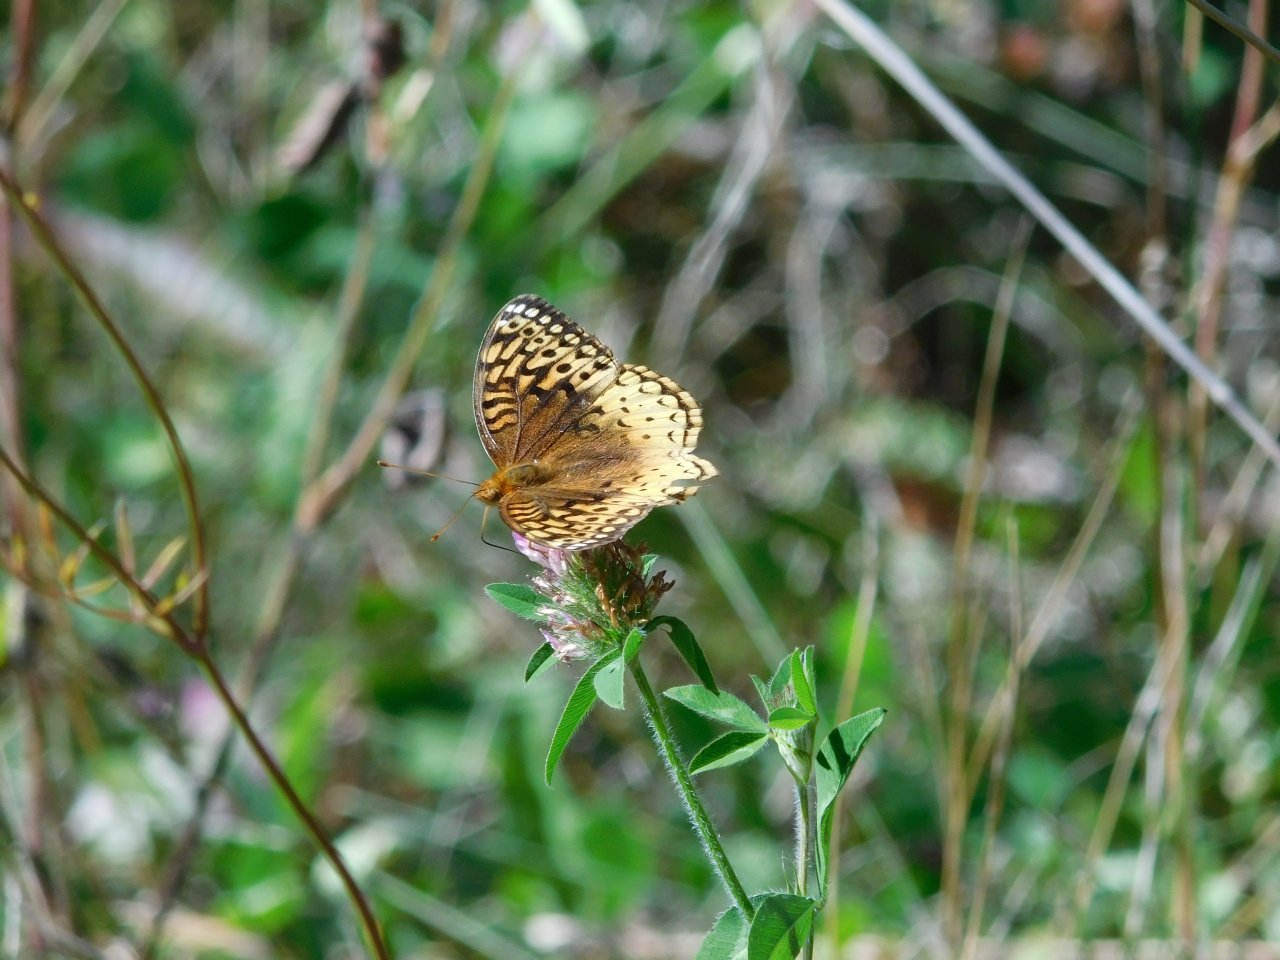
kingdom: Animalia
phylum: Arthropoda
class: Insecta
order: Lepidoptera
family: Nymphalidae
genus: Speyeria
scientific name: Speyeria cybele
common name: Great Spangled Fritillary
